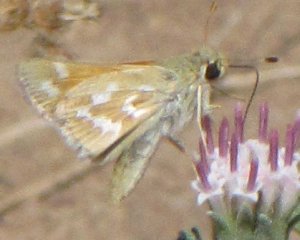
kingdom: Animalia
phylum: Arthropoda
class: Insecta
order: Lepidoptera
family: Hesperiidae
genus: Hesperia
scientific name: Hesperia comma
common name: Western Branded Skipper
